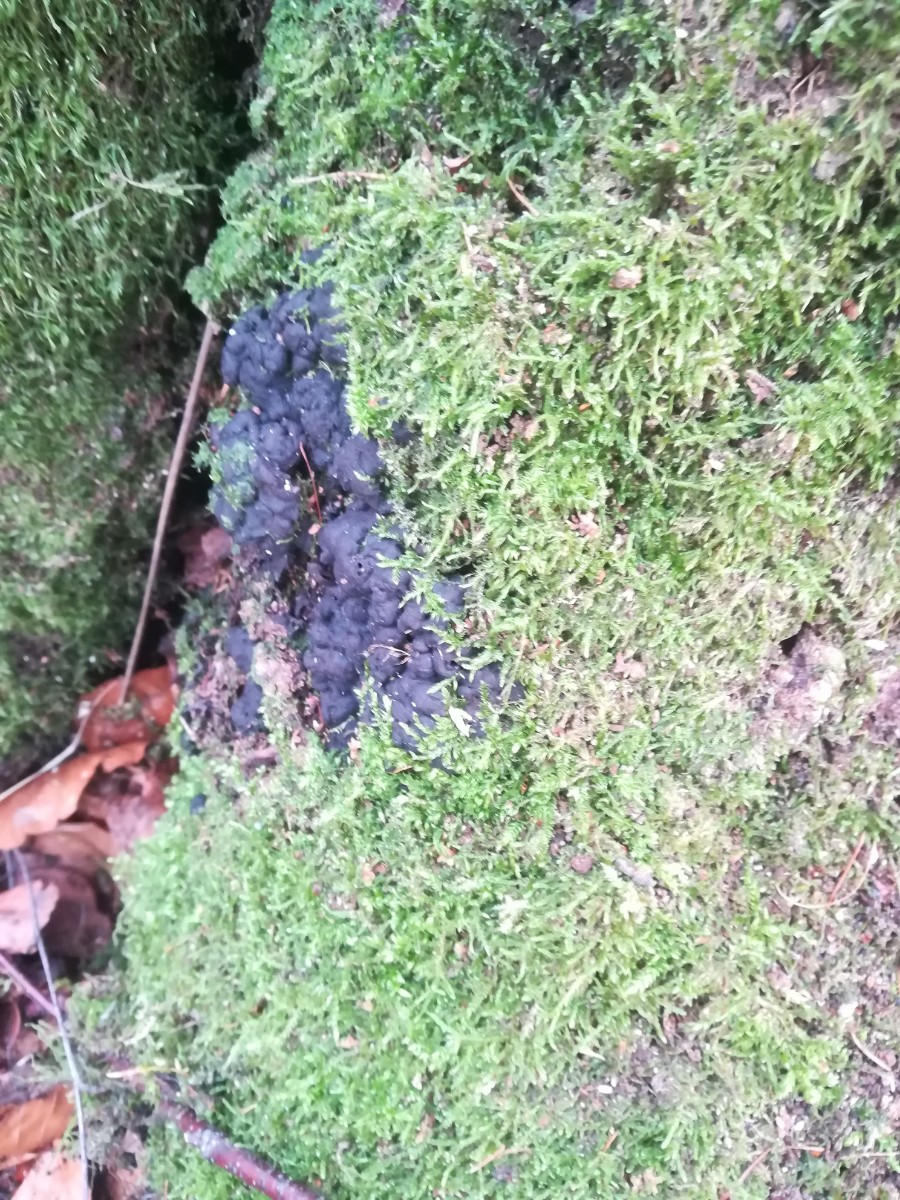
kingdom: Fungi
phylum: Ascomycota
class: Sordariomycetes
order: Xylariales
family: Xylariaceae
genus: Kretzschmaria
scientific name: Kretzschmaria deusta
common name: stor kulsvamp
